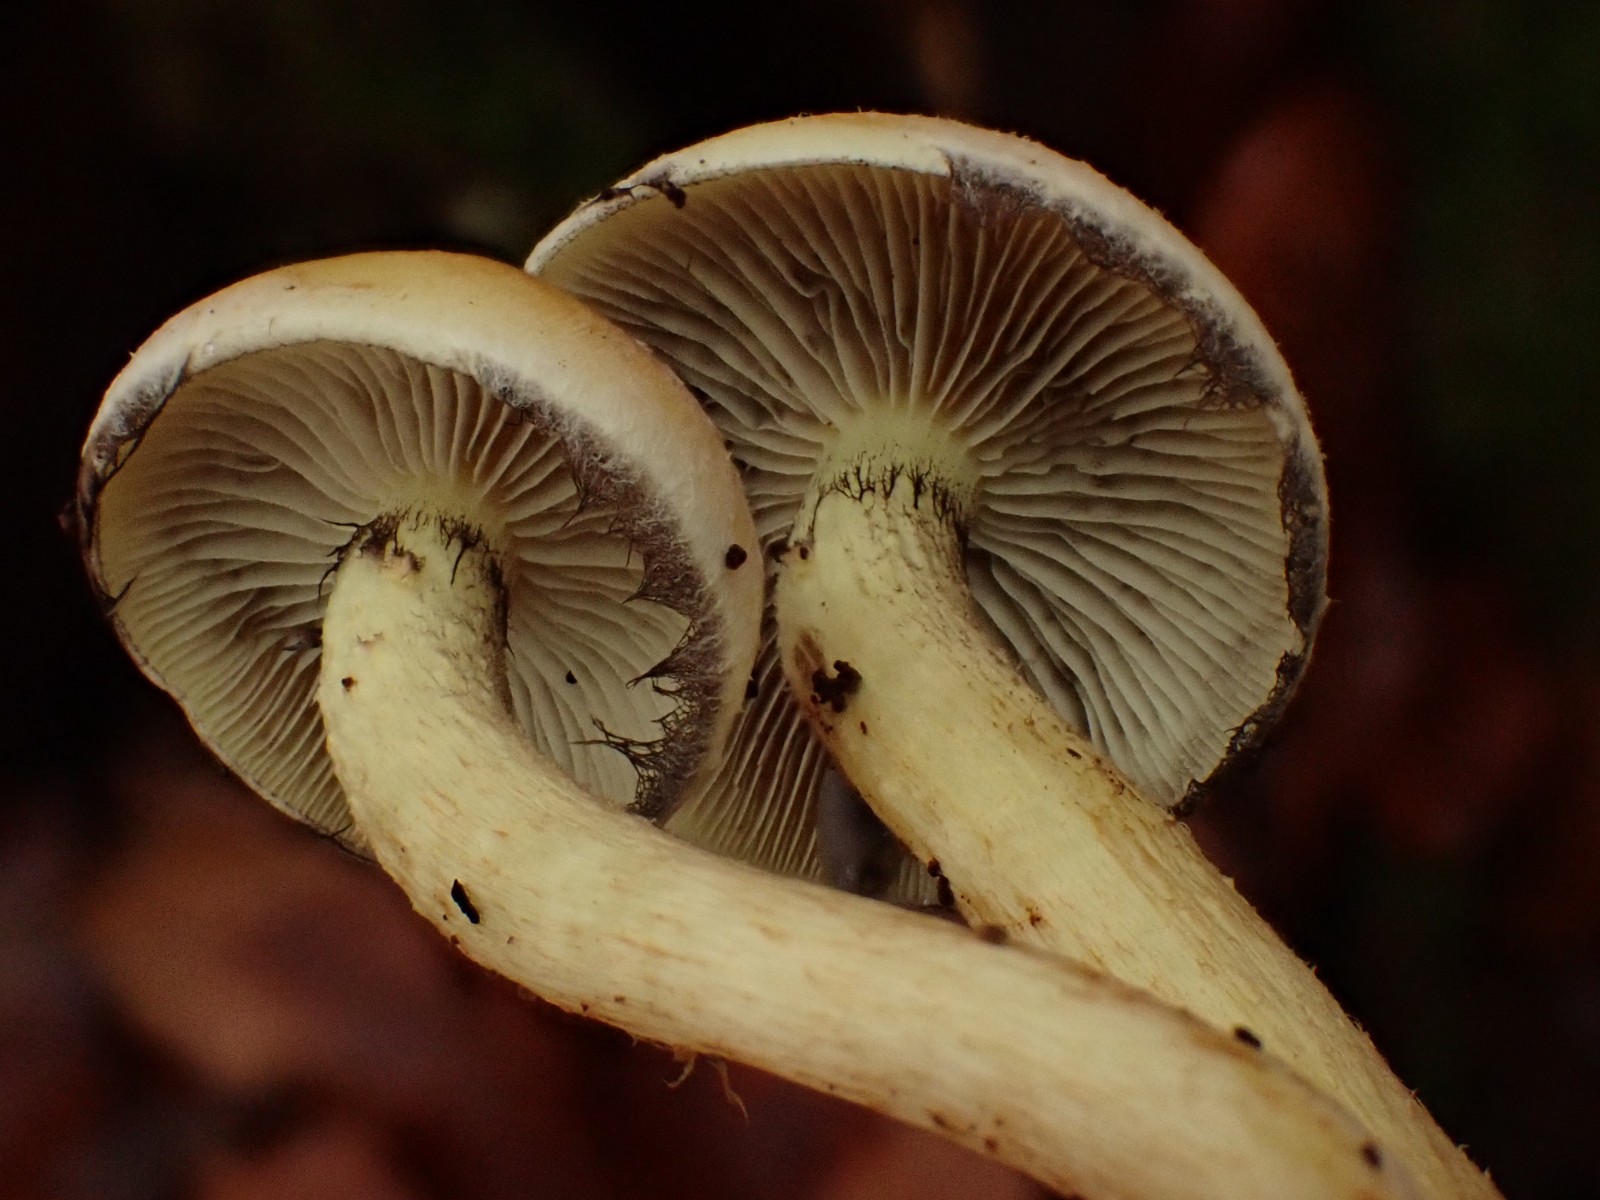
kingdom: Fungi
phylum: Basidiomycota
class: Agaricomycetes
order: Agaricales
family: Strophariaceae
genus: Hypholoma
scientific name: Hypholoma fasciculare
